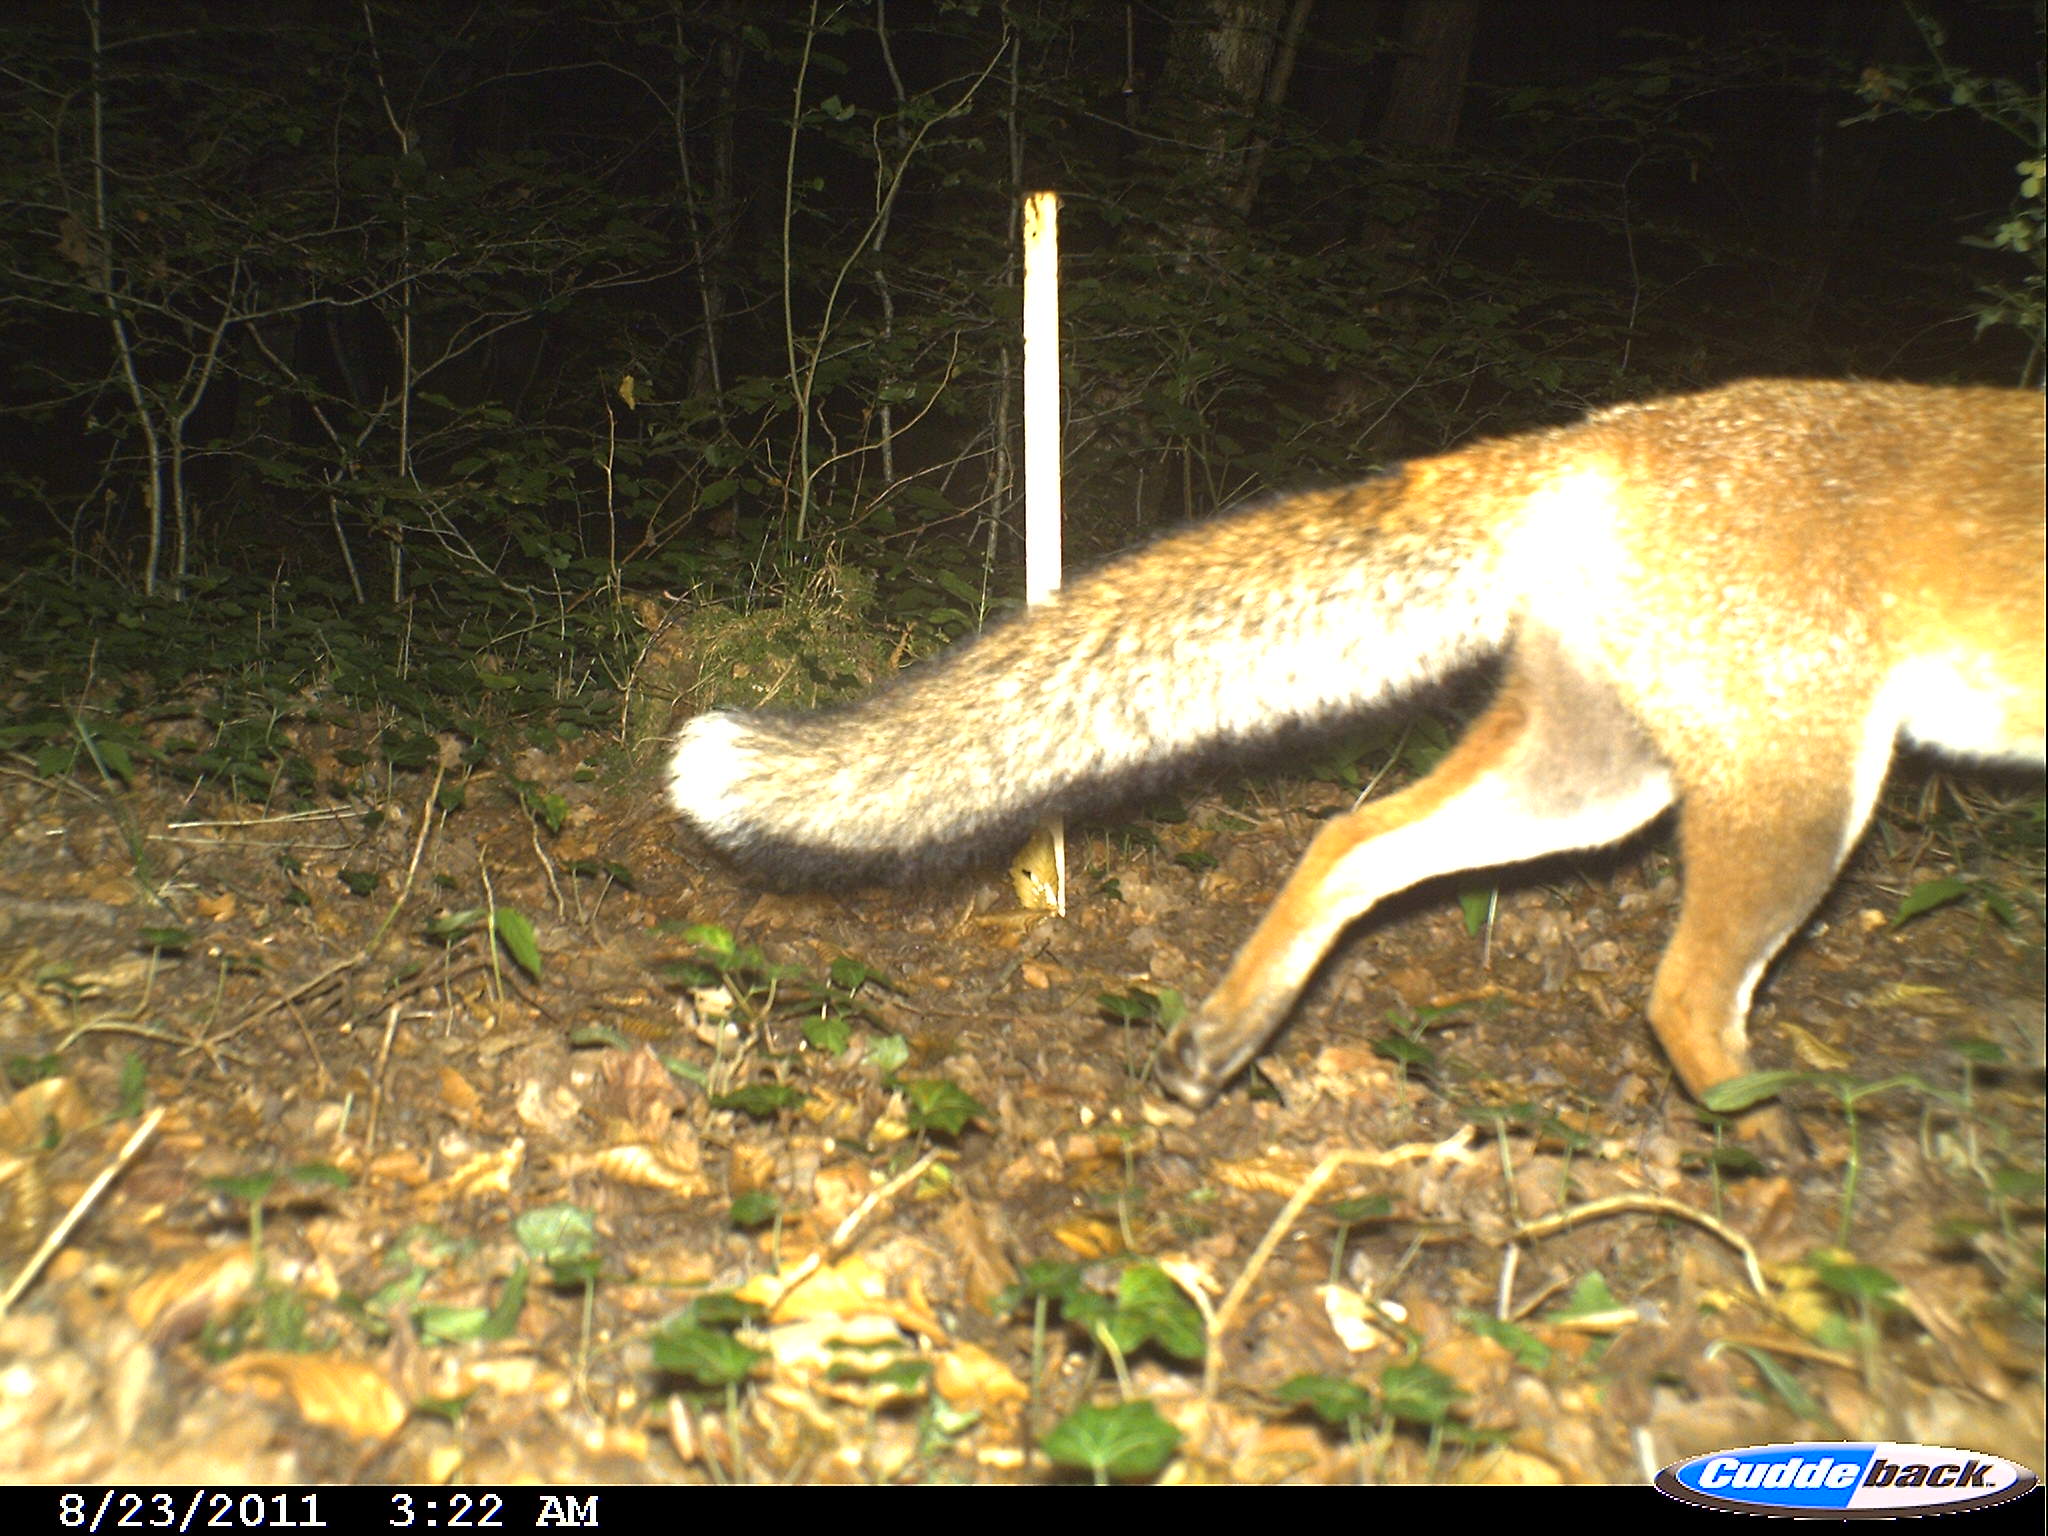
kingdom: Animalia
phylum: Chordata
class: Mammalia
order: Carnivora
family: Canidae
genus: Vulpes
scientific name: Vulpes vulpes
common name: Red fox
